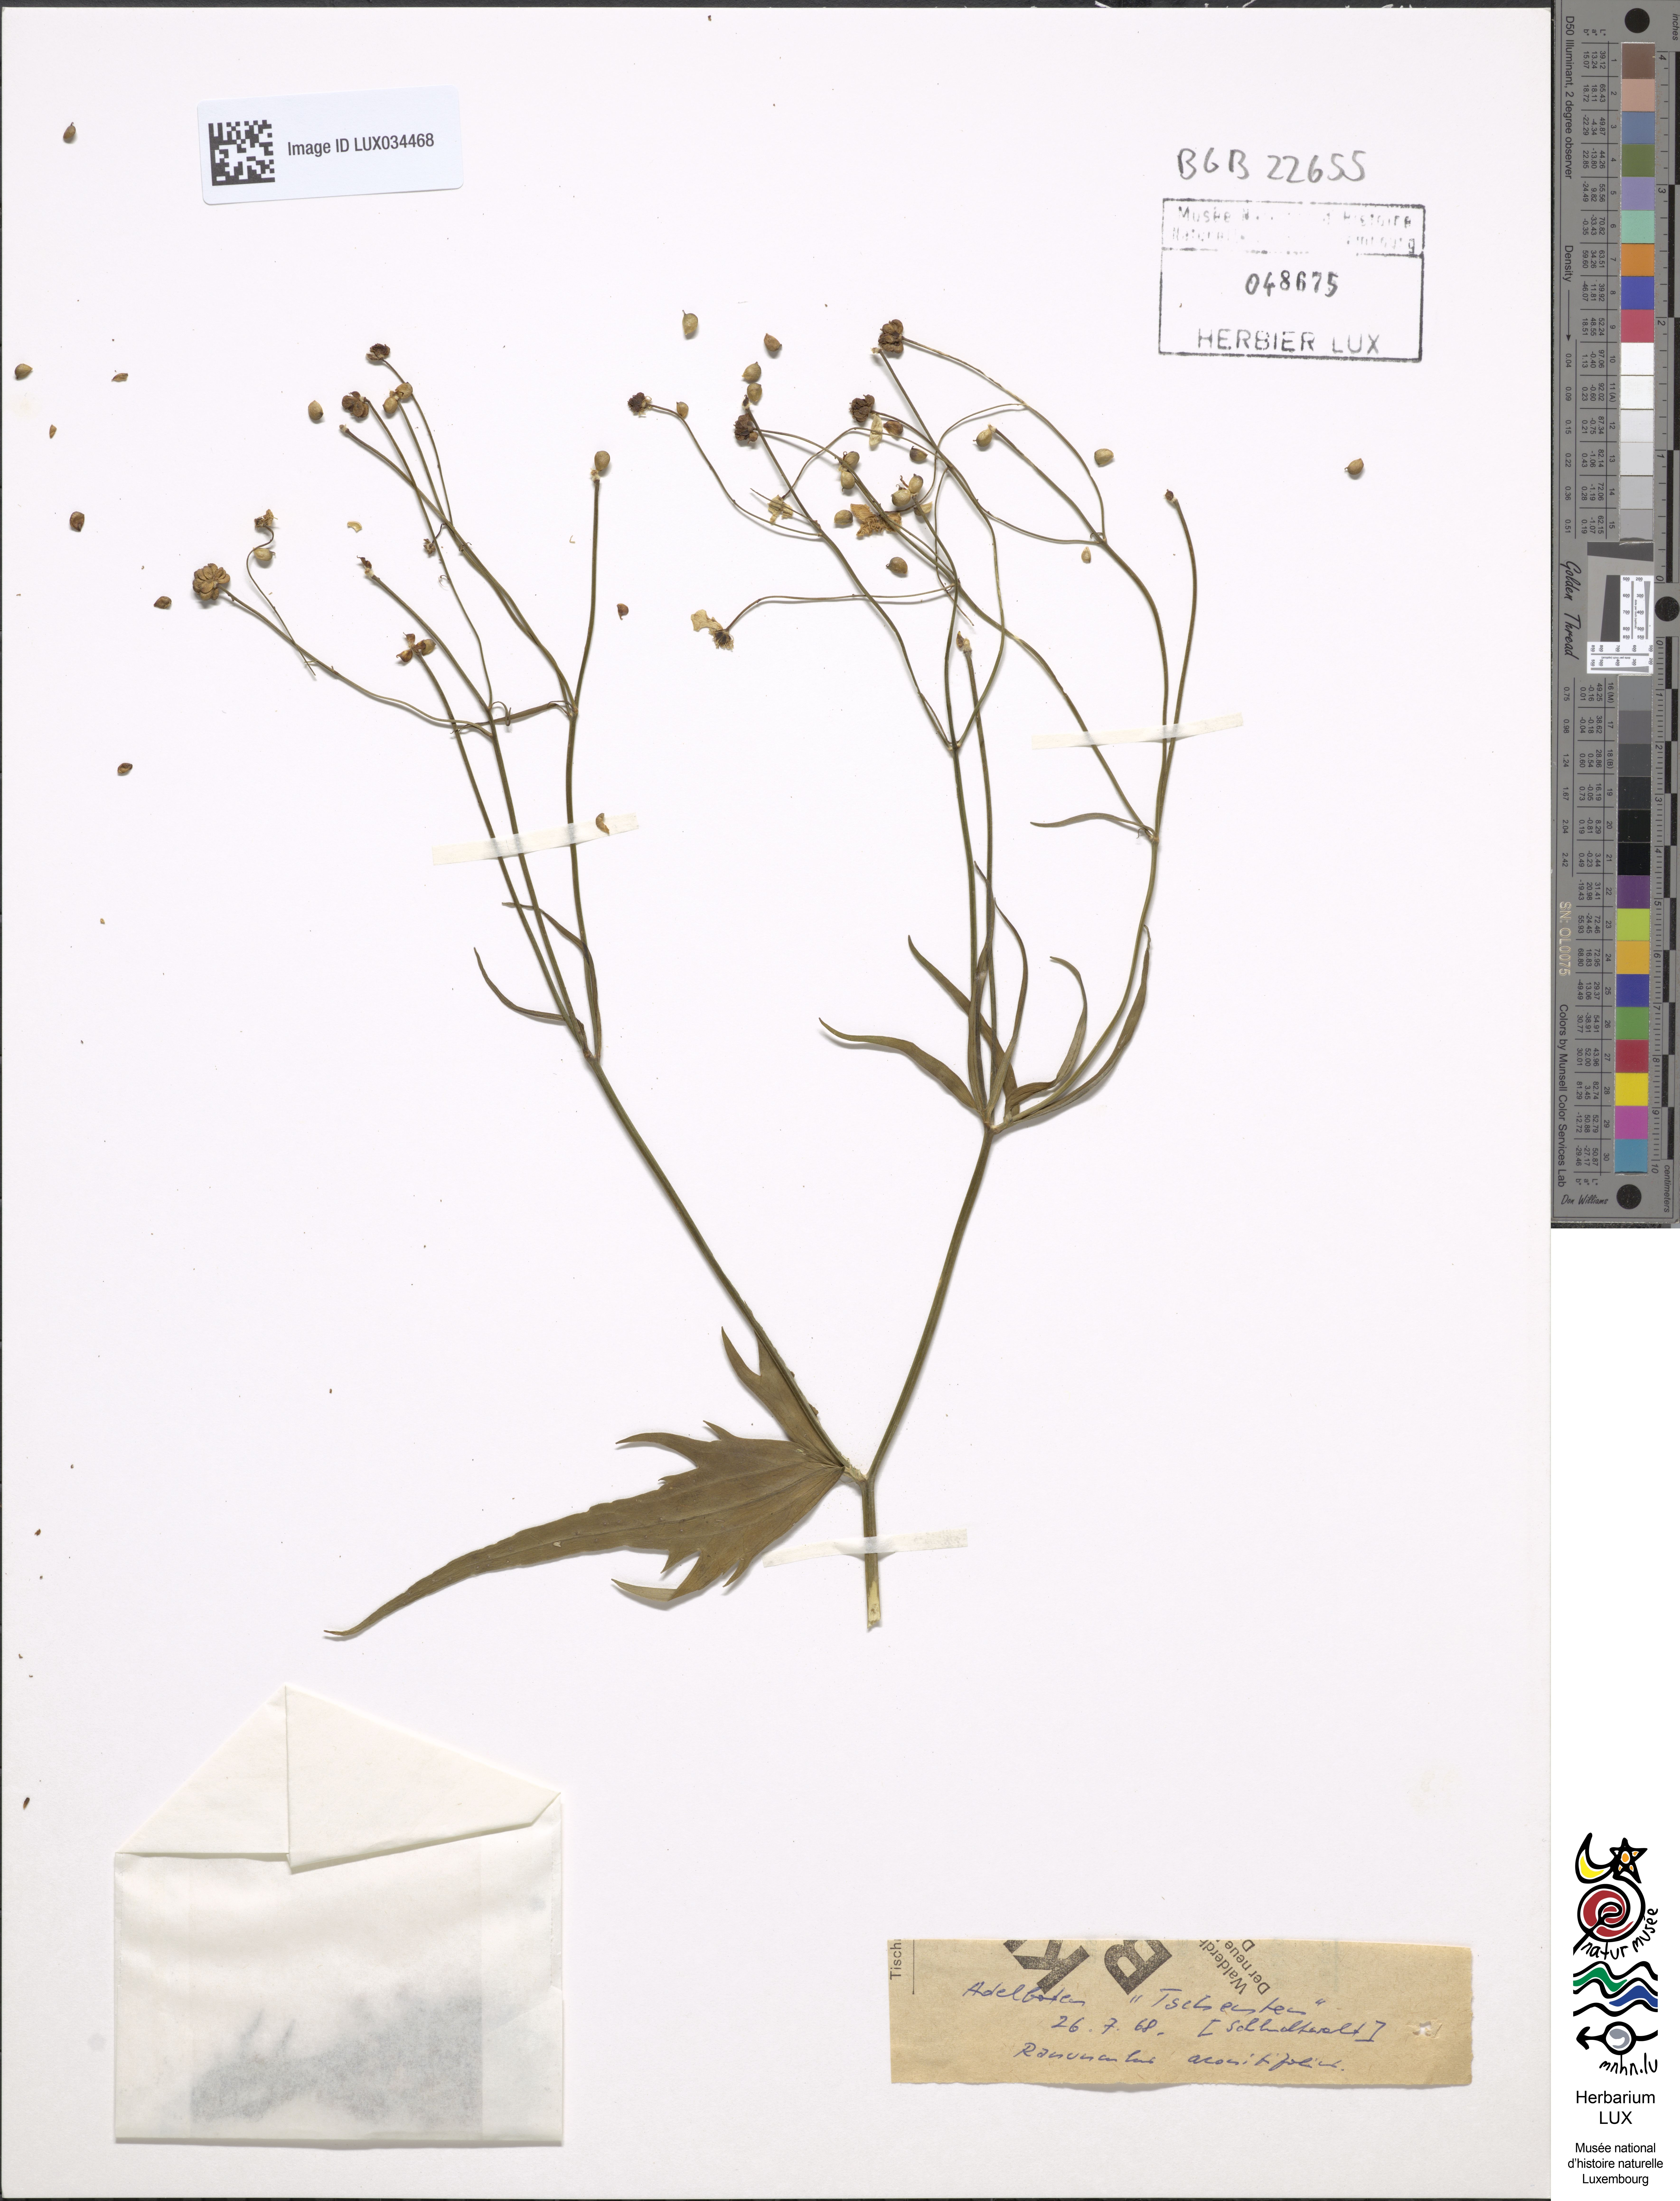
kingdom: Plantae
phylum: Tracheophyta
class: Magnoliopsida
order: Ranunculales
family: Ranunculaceae
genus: Ranunculus
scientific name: Ranunculus aconitifolius
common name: Aconite-leaved buttercup
